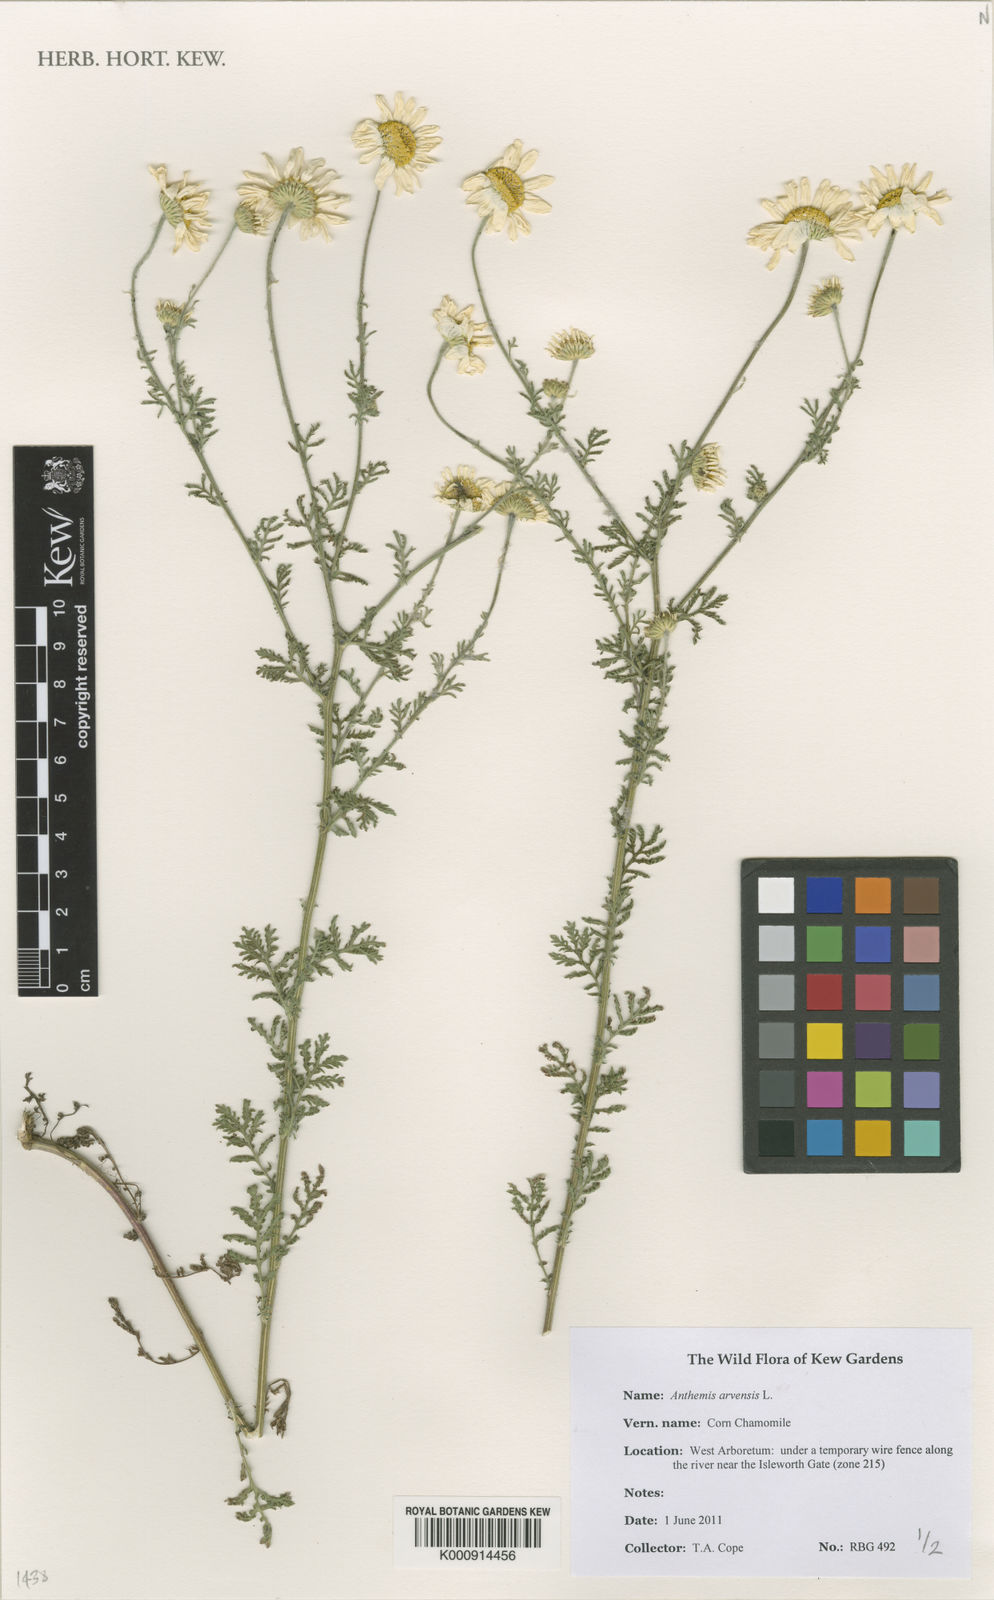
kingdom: Plantae
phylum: Tracheophyta
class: Magnoliopsida
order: Asterales
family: Asteraceae
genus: Anthemis
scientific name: Anthemis arvensis
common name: Corn chamomile
